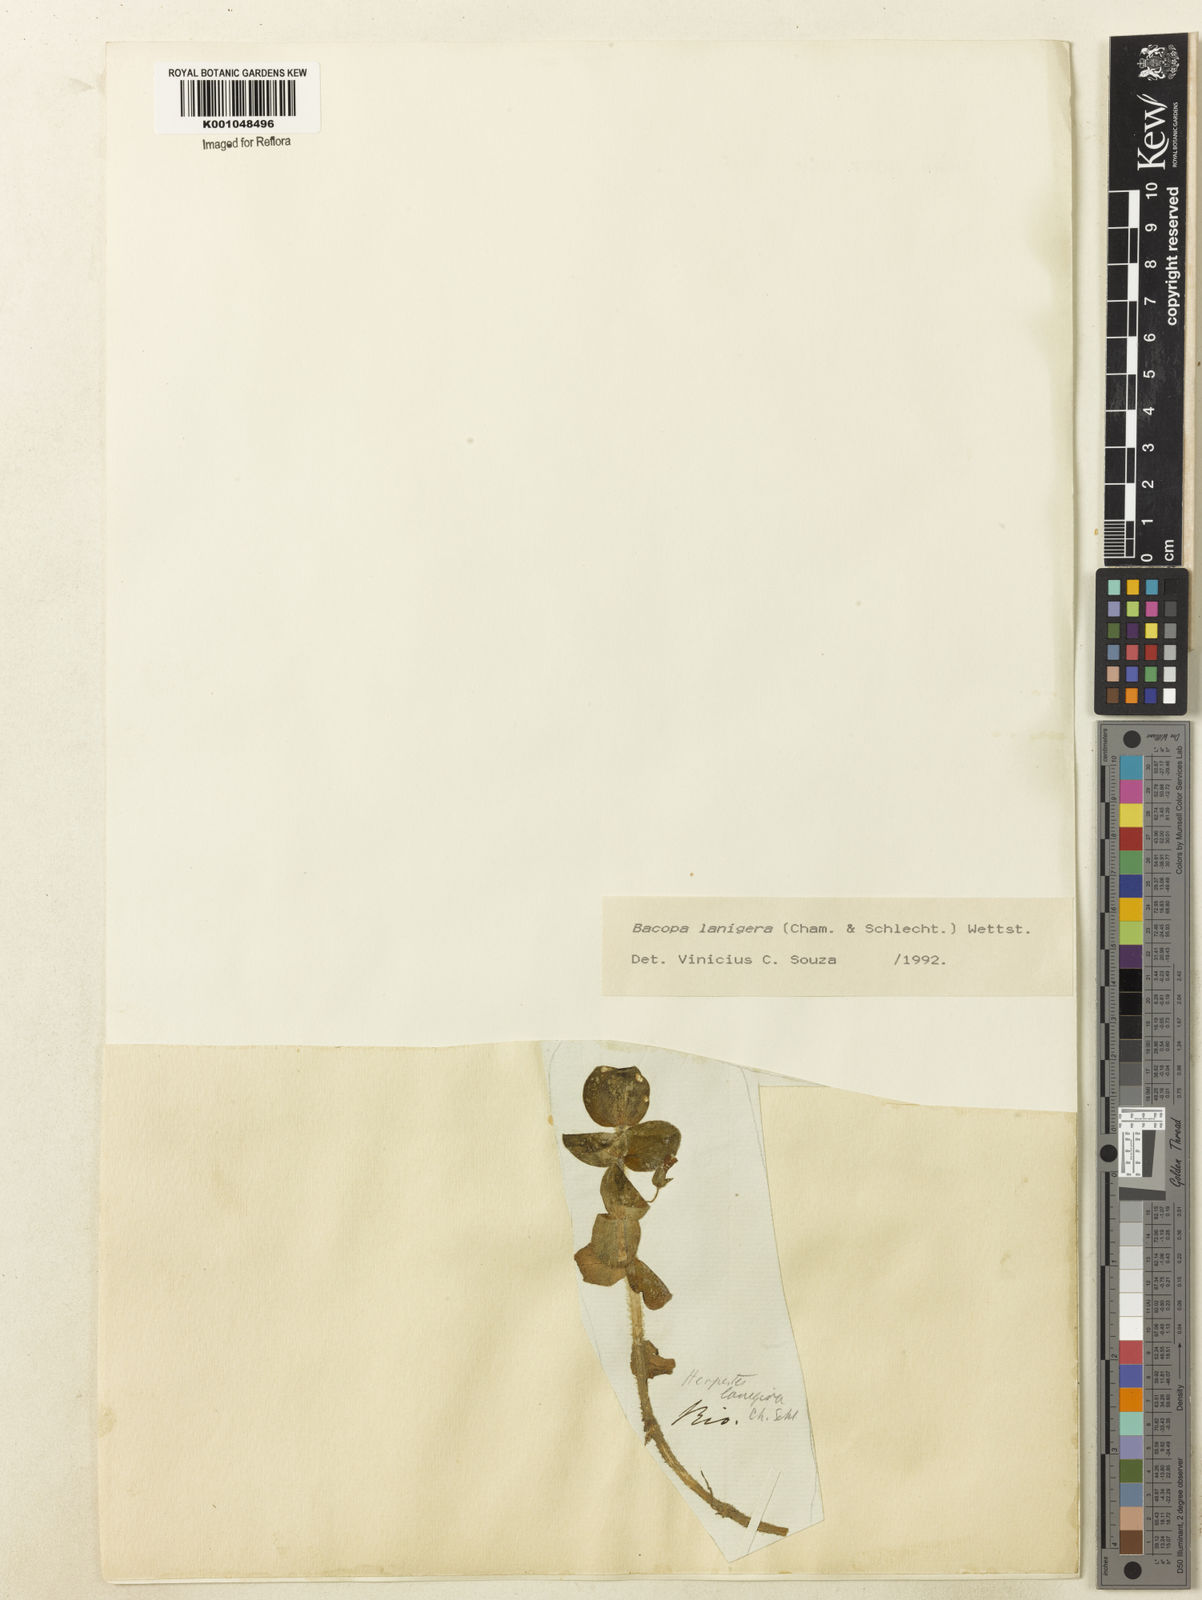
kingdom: Plantae
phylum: Tracheophyta
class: Magnoliopsida
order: Lamiales
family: Plantaginaceae
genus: Bacopa
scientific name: Bacopa lanigera
